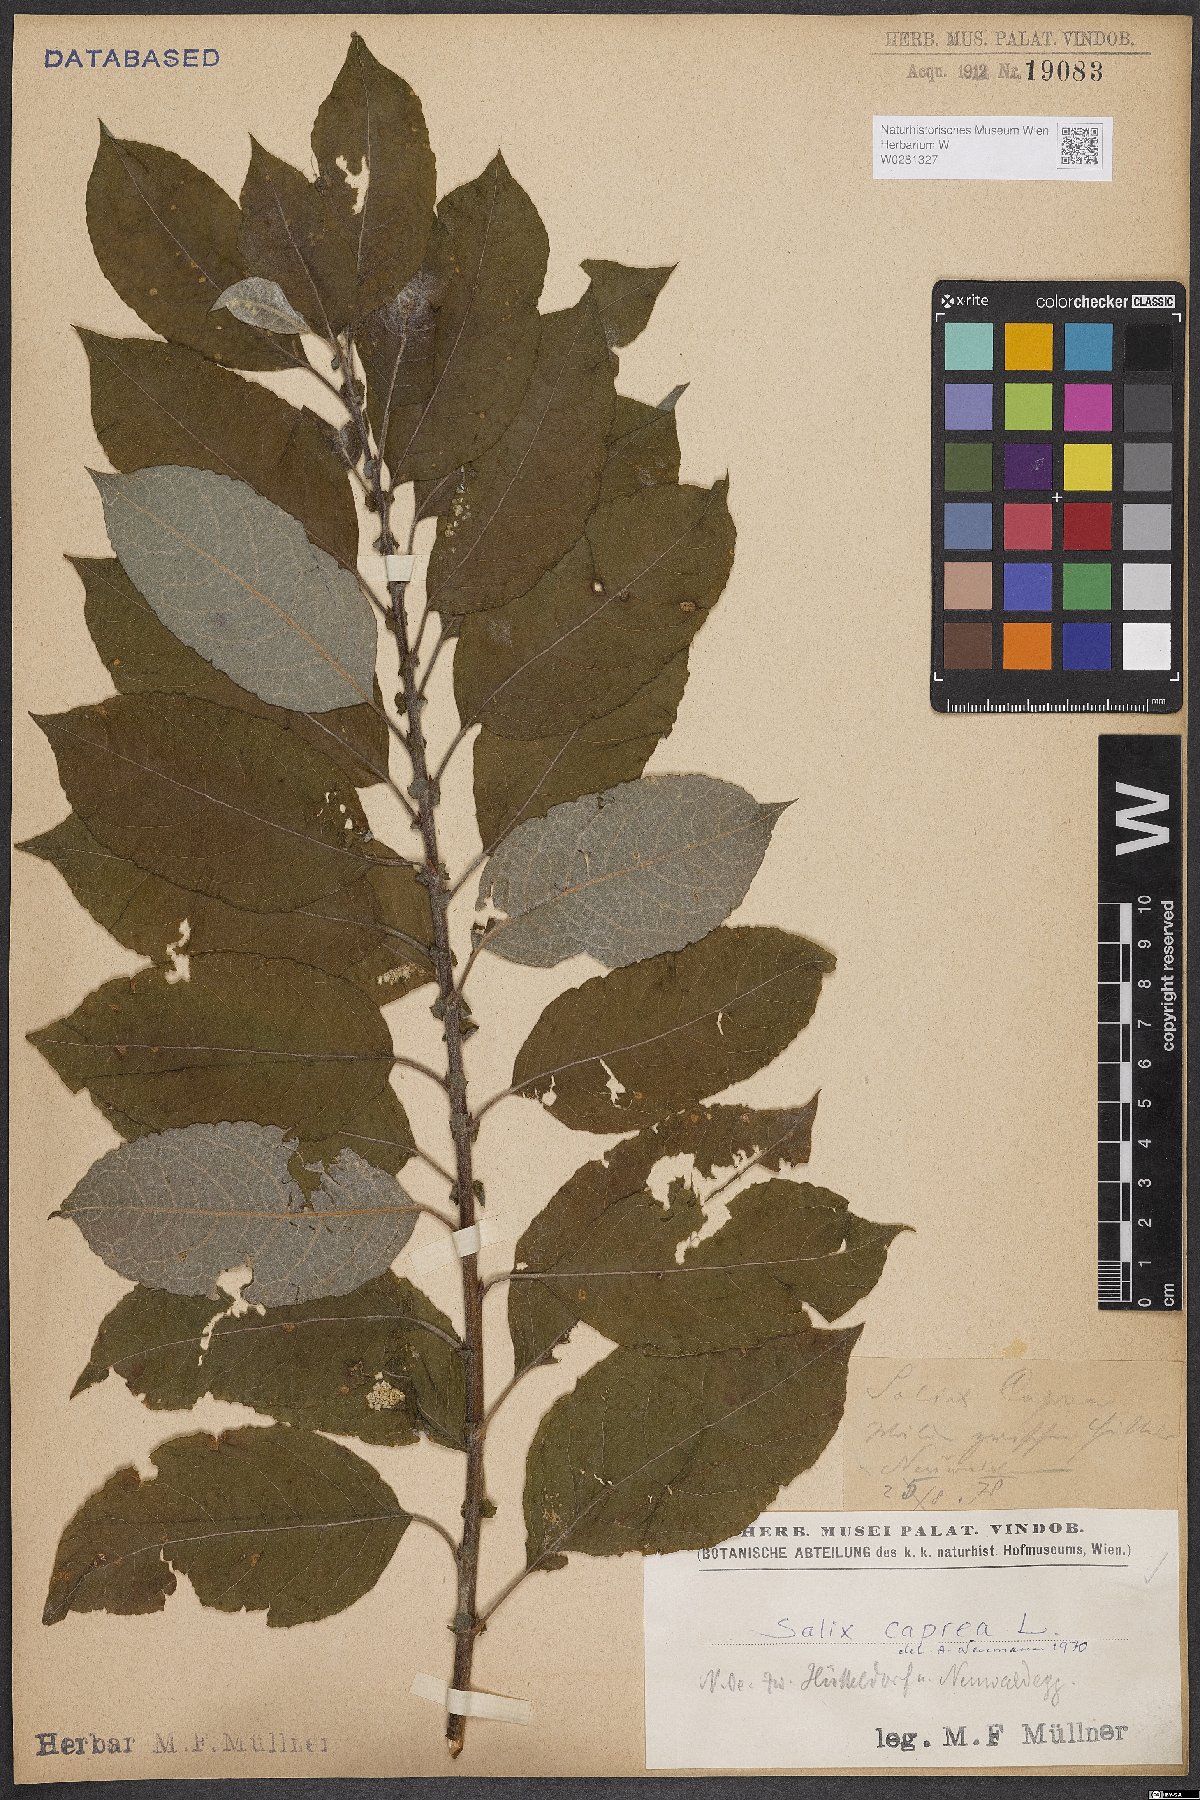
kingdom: Plantae
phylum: Tracheophyta
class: Magnoliopsida
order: Malpighiales
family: Salicaceae
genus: Salix
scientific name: Salix caprea
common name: Goat willow
